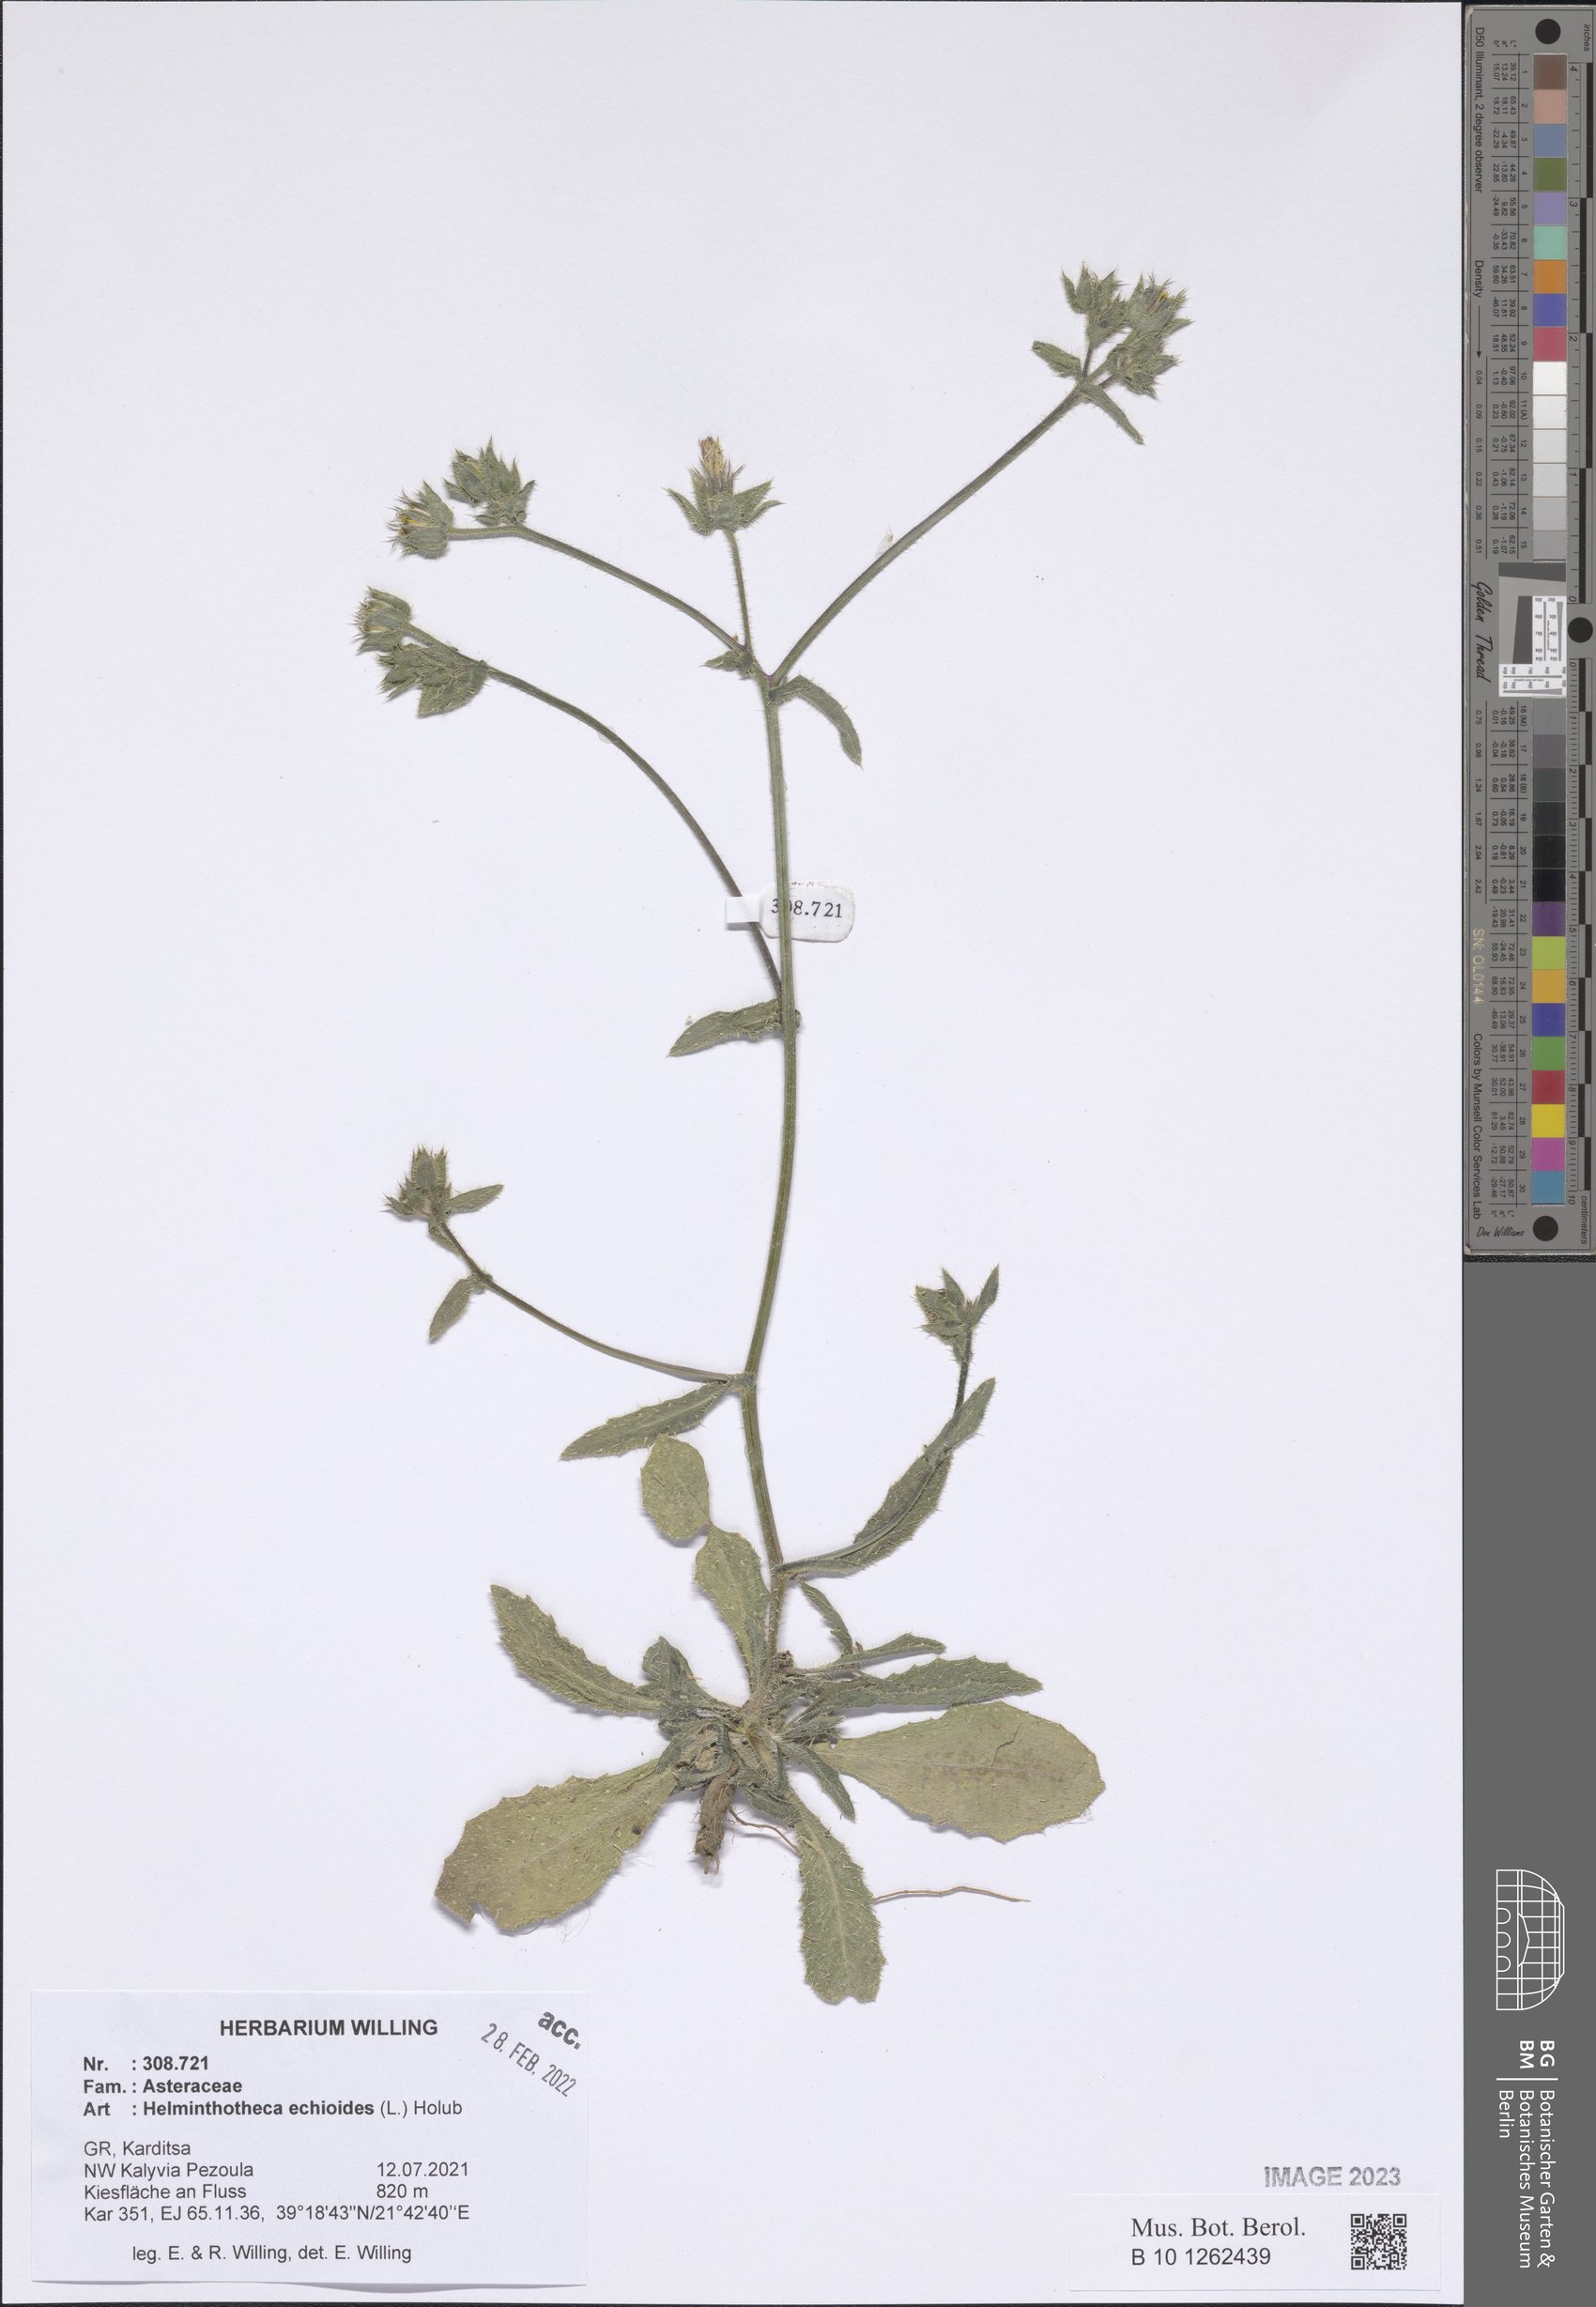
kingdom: Plantae
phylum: Tracheophyta
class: Magnoliopsida
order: Asterales
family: Asteraceae
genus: Helminthotheca
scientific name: Helminthotheca echioides
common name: Ox-tongue
